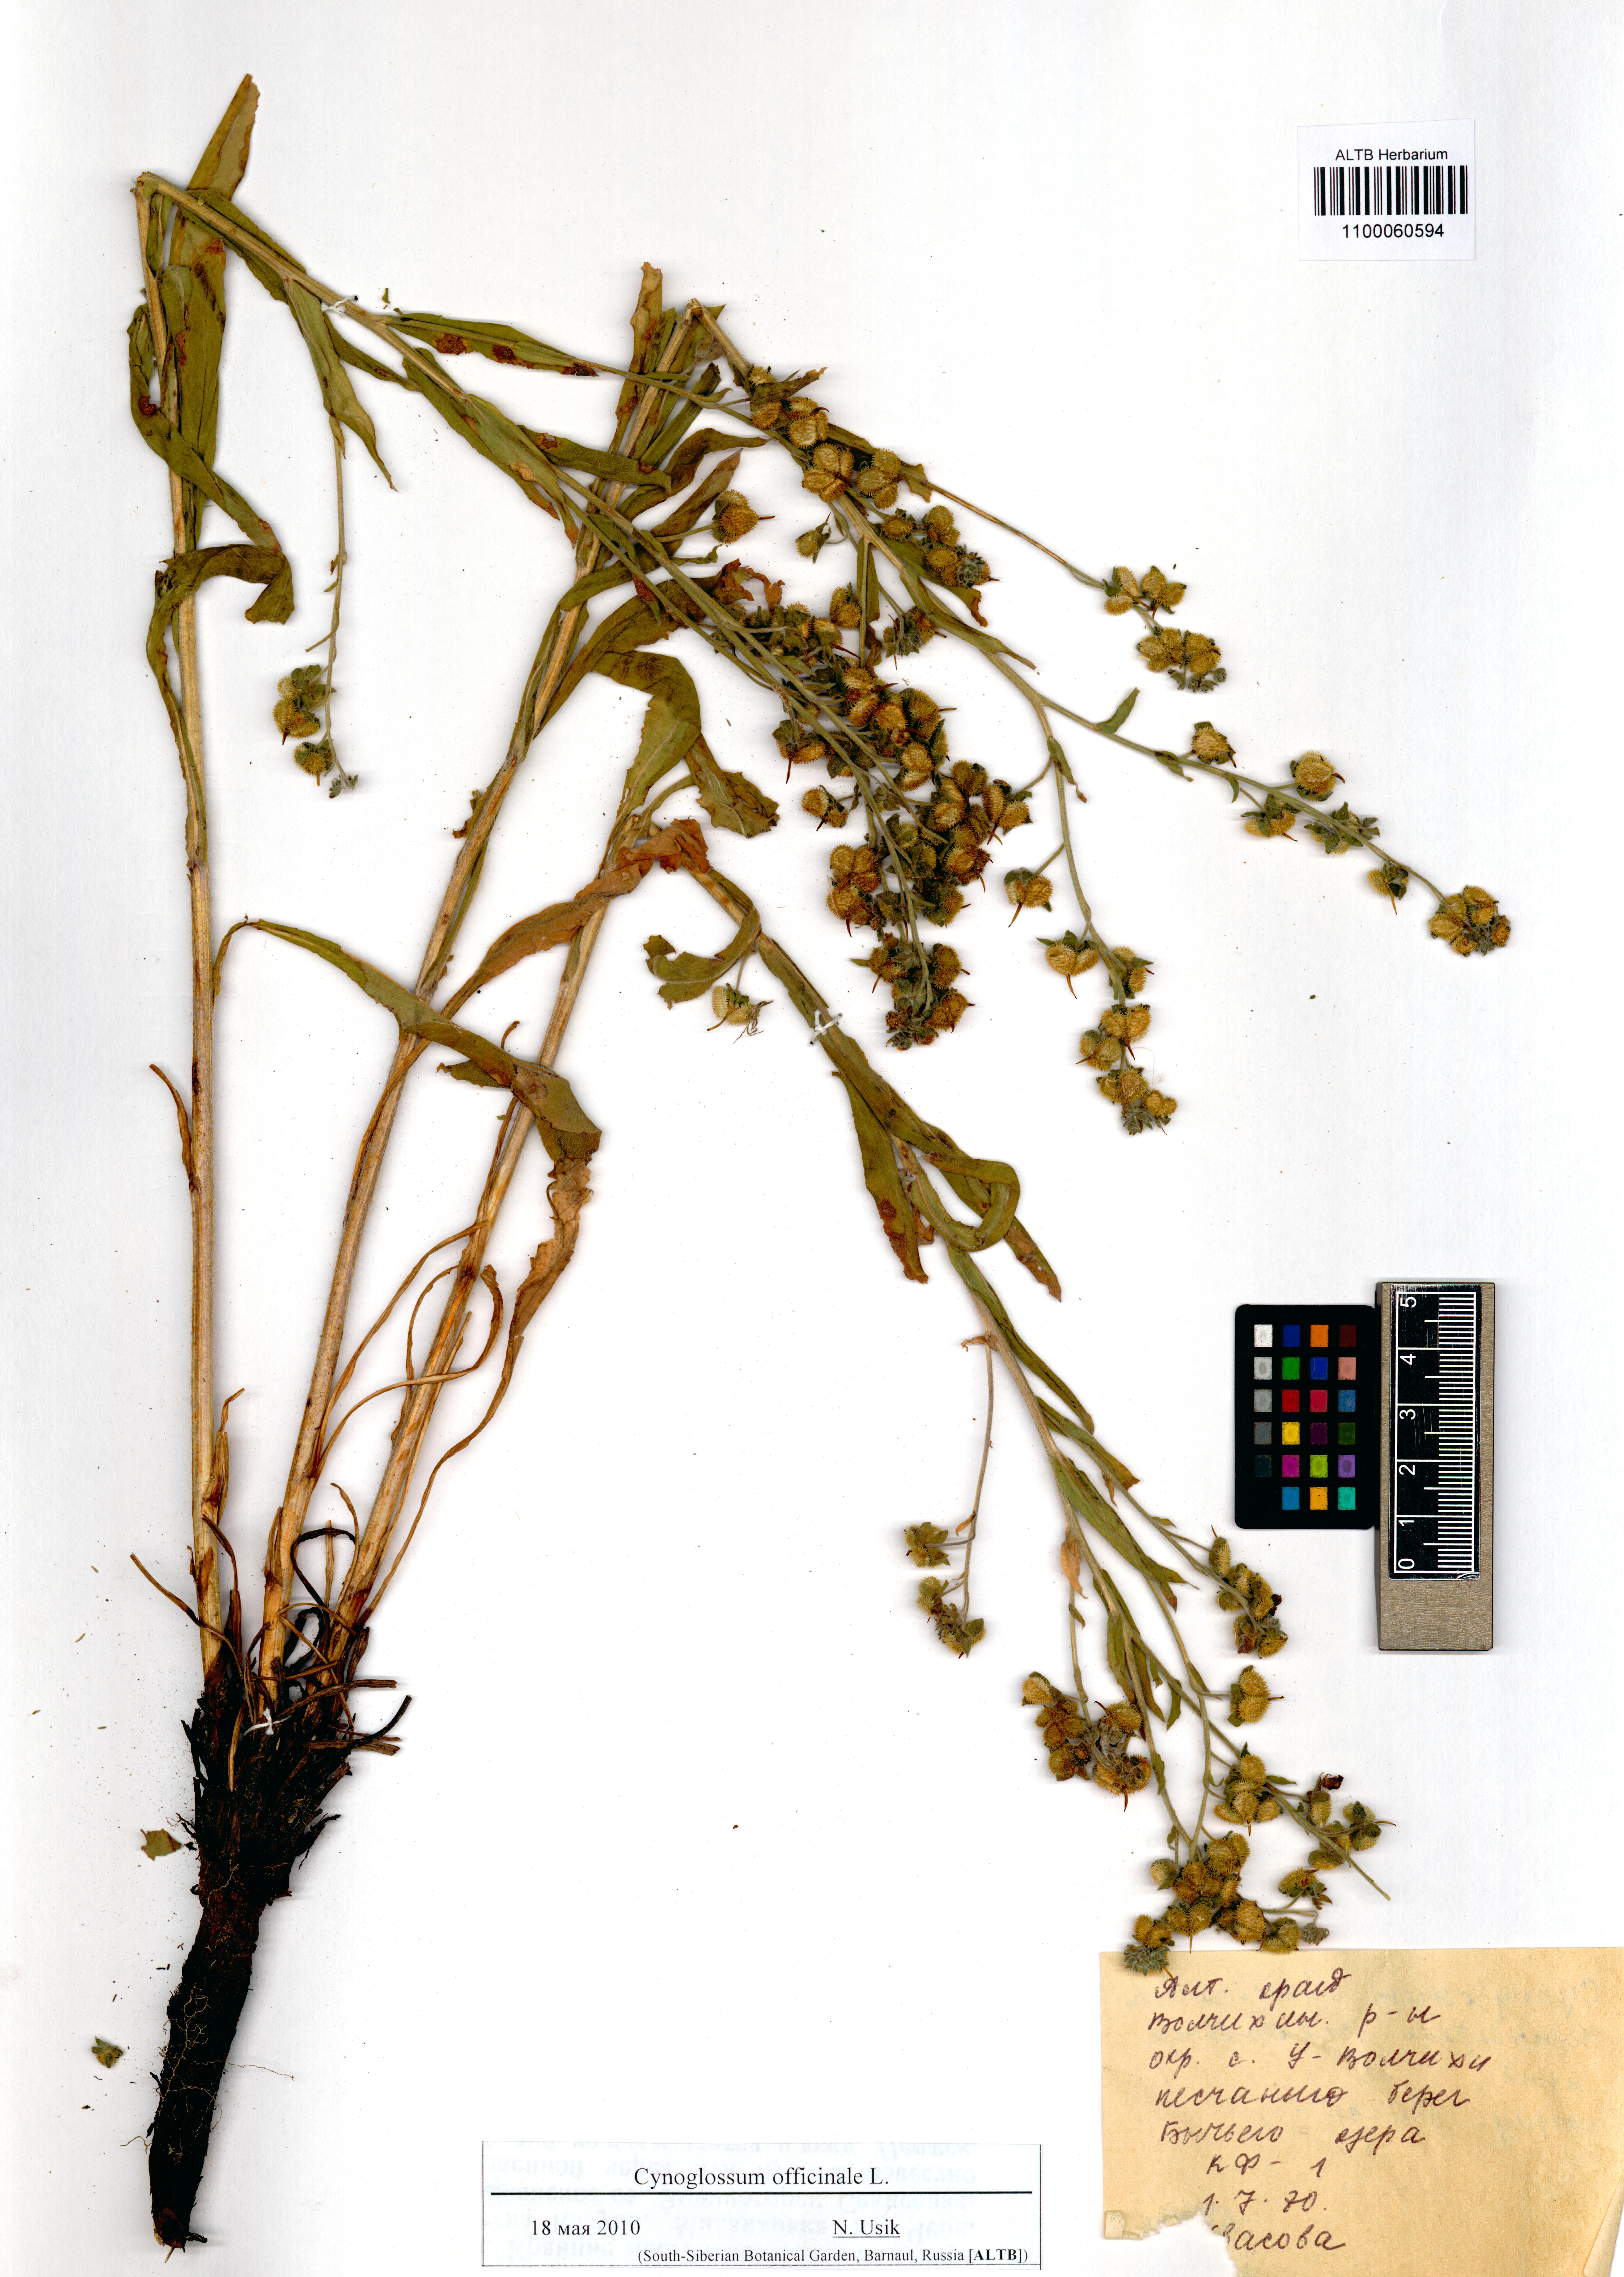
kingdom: Plantae
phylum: Tracheophyta
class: Magnoliopsida
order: Boraginales
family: Boraginaceae
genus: Cynoglossum
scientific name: Cynoglossum officinale
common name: Hound's-tongue
